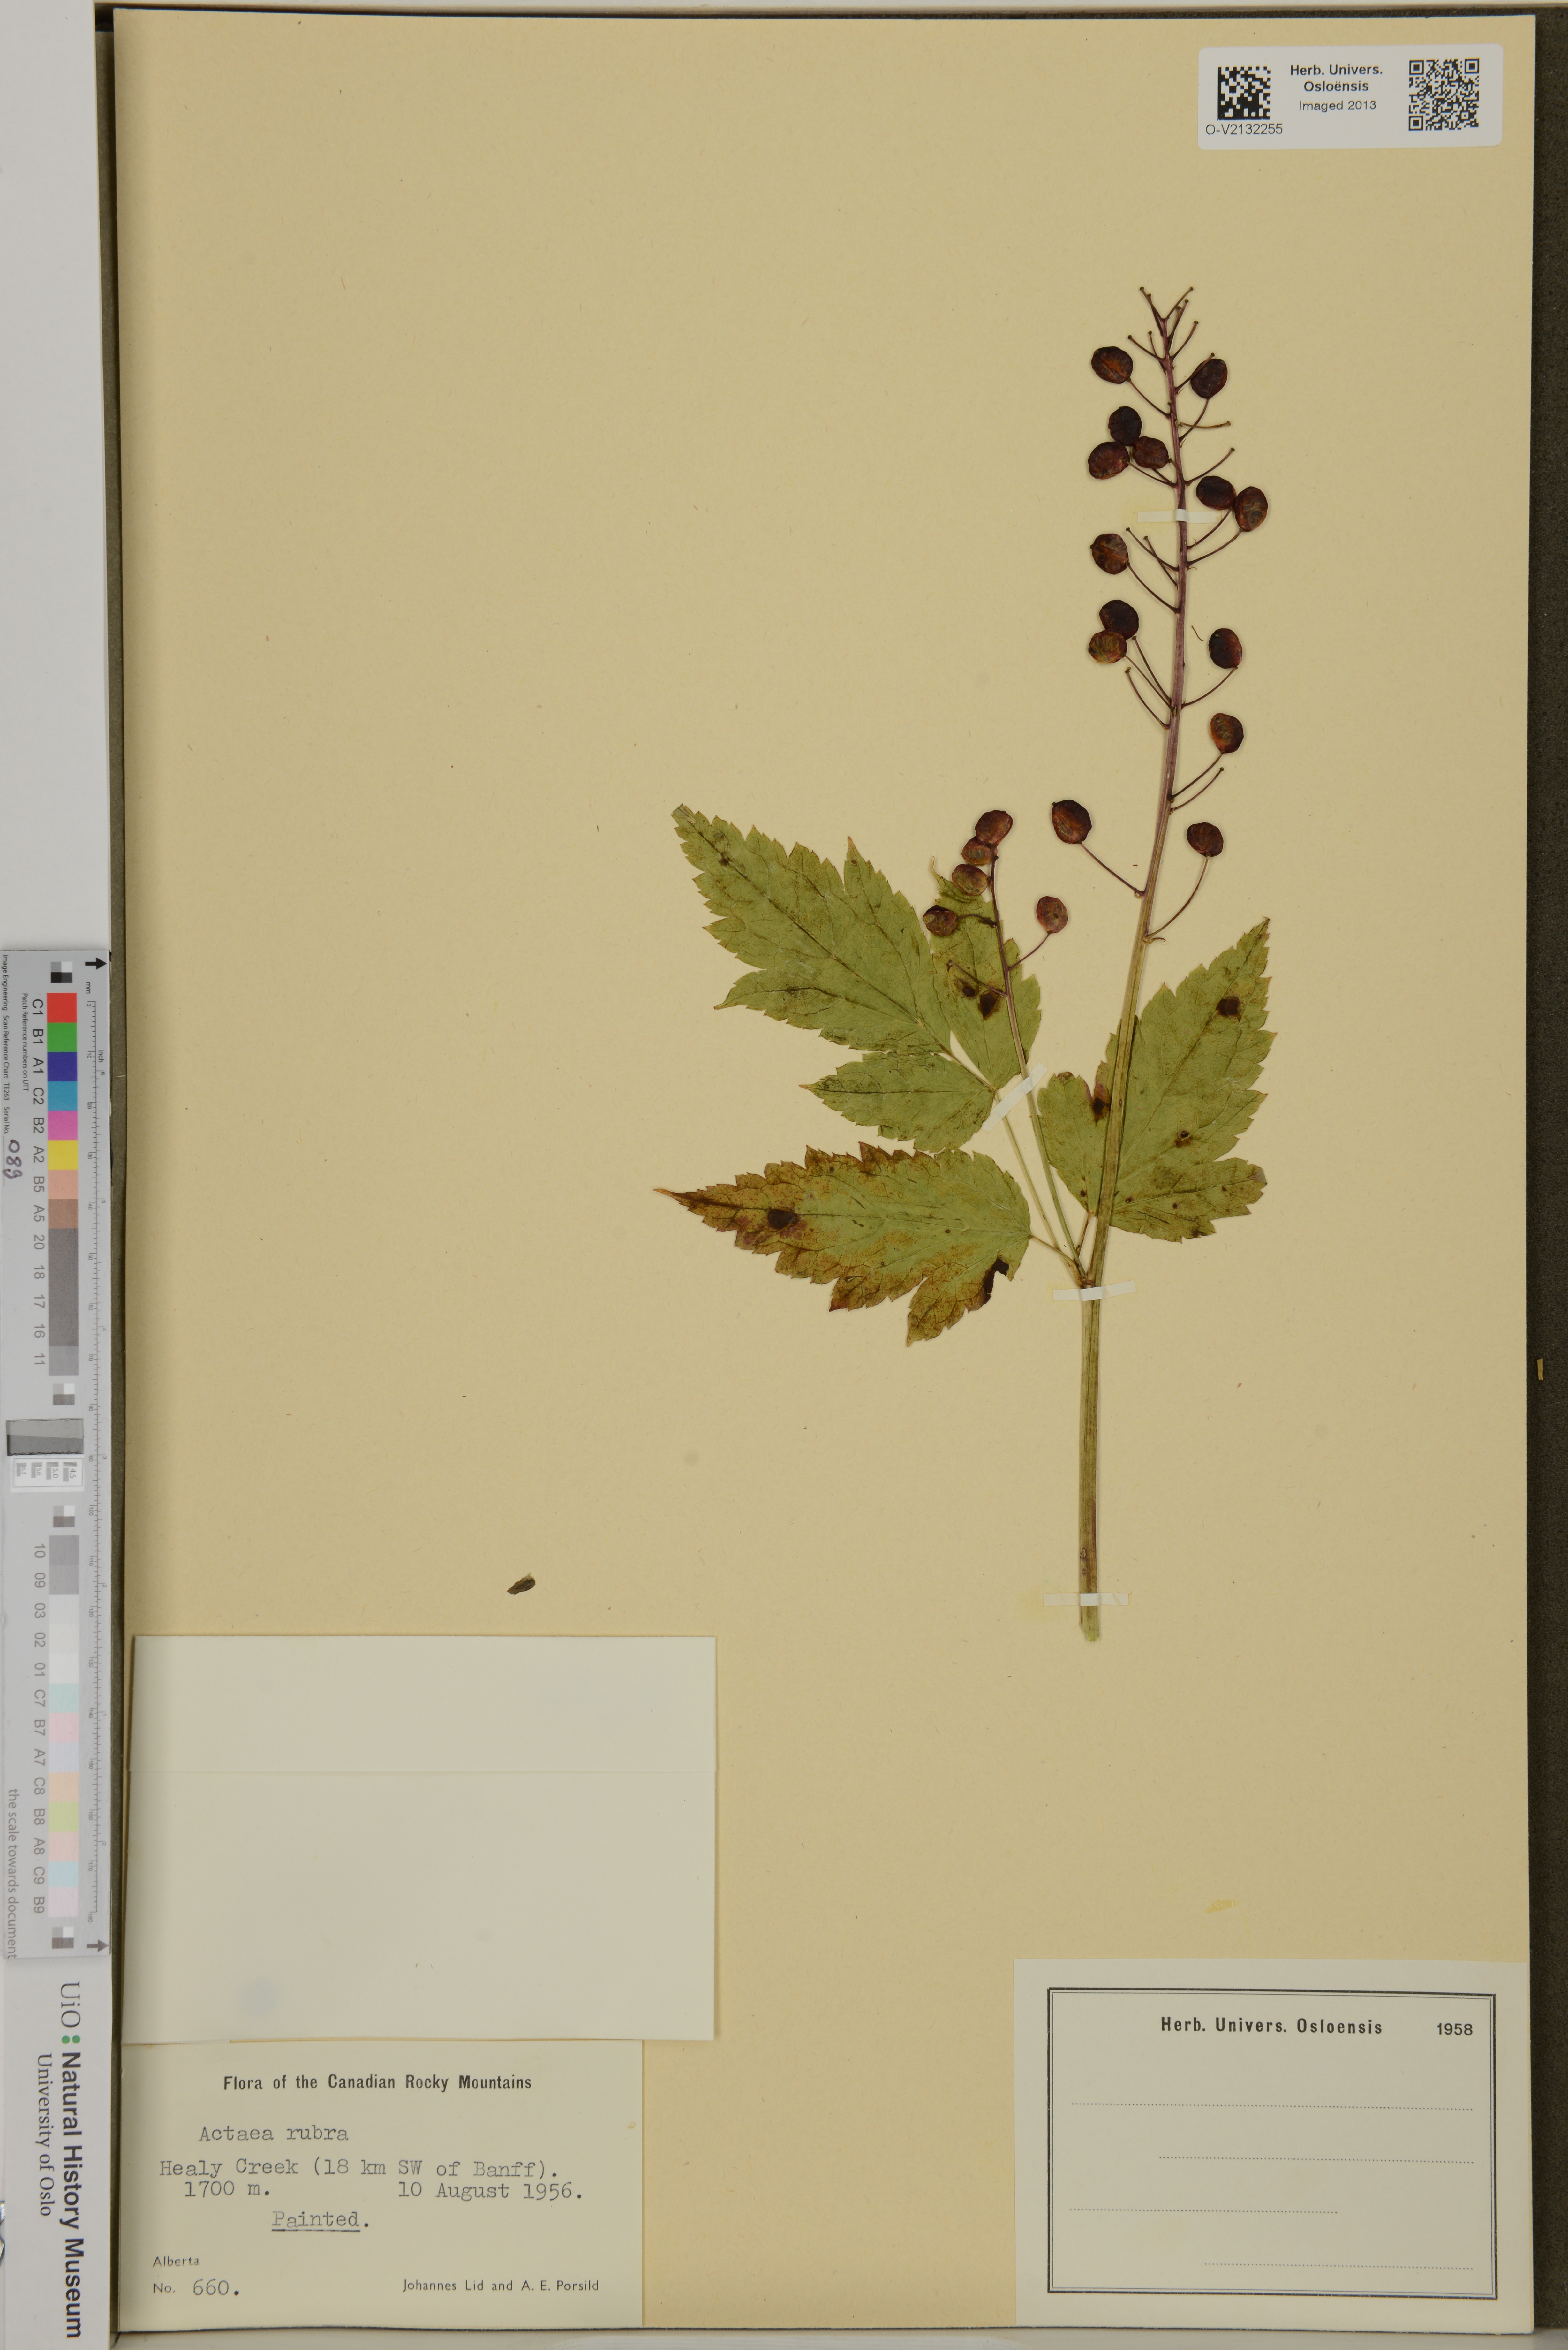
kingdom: Plantae
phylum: Tracheophyta
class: Magnoliopsida
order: Ranunculales
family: Ranunculaceae
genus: Actaea
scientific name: Actaea rubra
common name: Red baneberry
